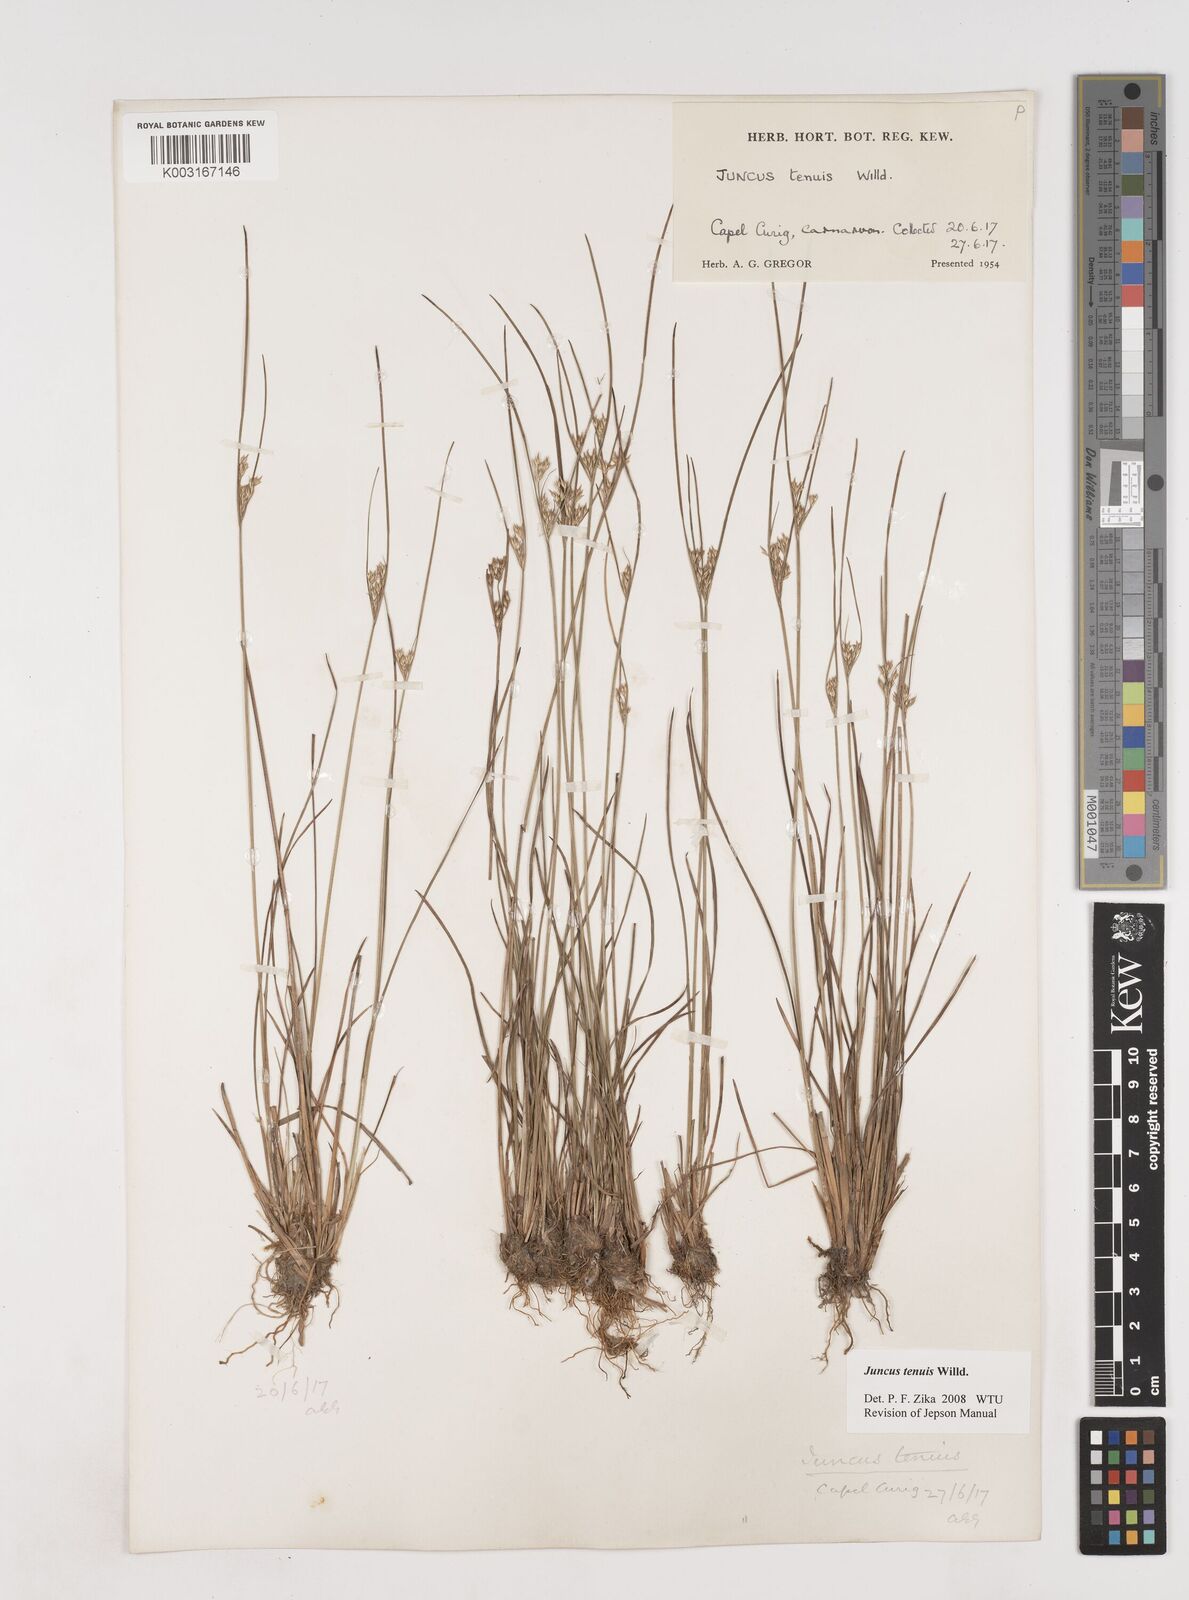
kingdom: Plantae
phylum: Tracheophyta
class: Liliopsida
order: Poales
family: Juncaceae
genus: Juncus
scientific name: Juncus tenuis
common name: Slender rush
